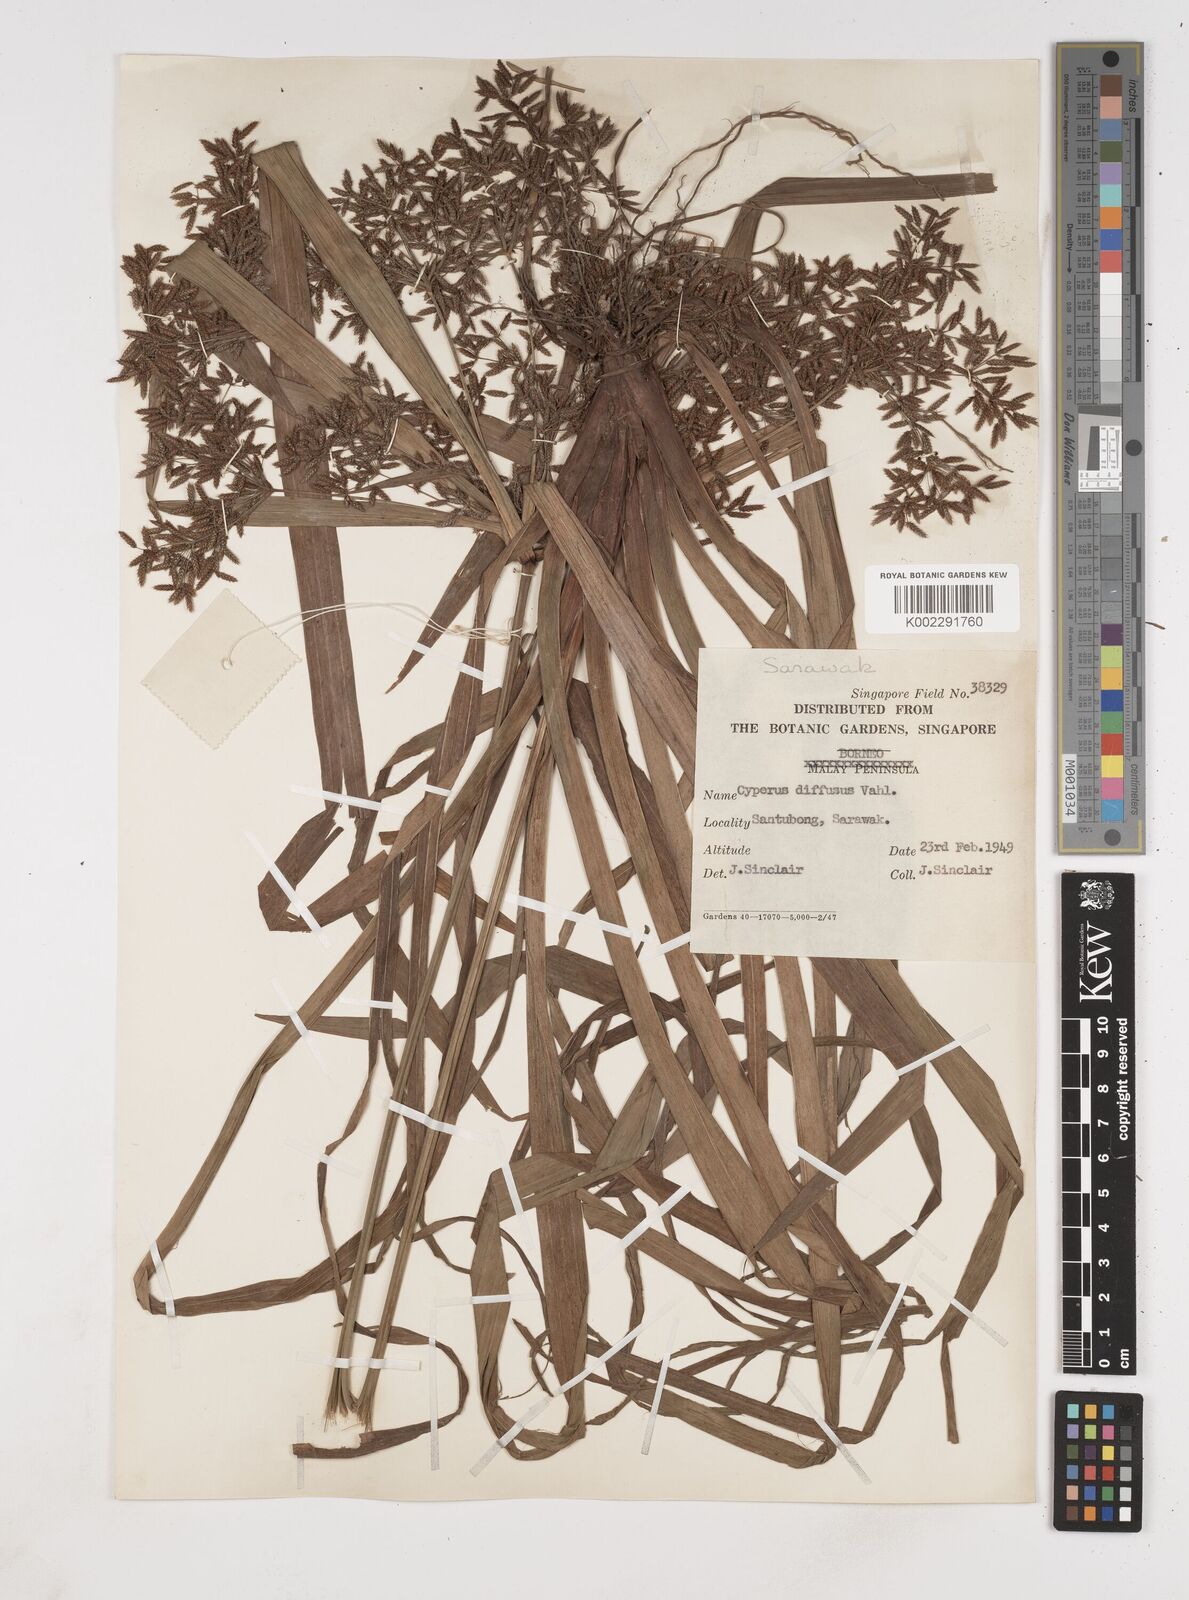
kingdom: Plantae
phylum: Tracheophyta
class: Liliopsida
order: Poales
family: Cyperaceae
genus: Cyperus
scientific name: Cyperus diffusus
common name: Dwarf umbrella grass
